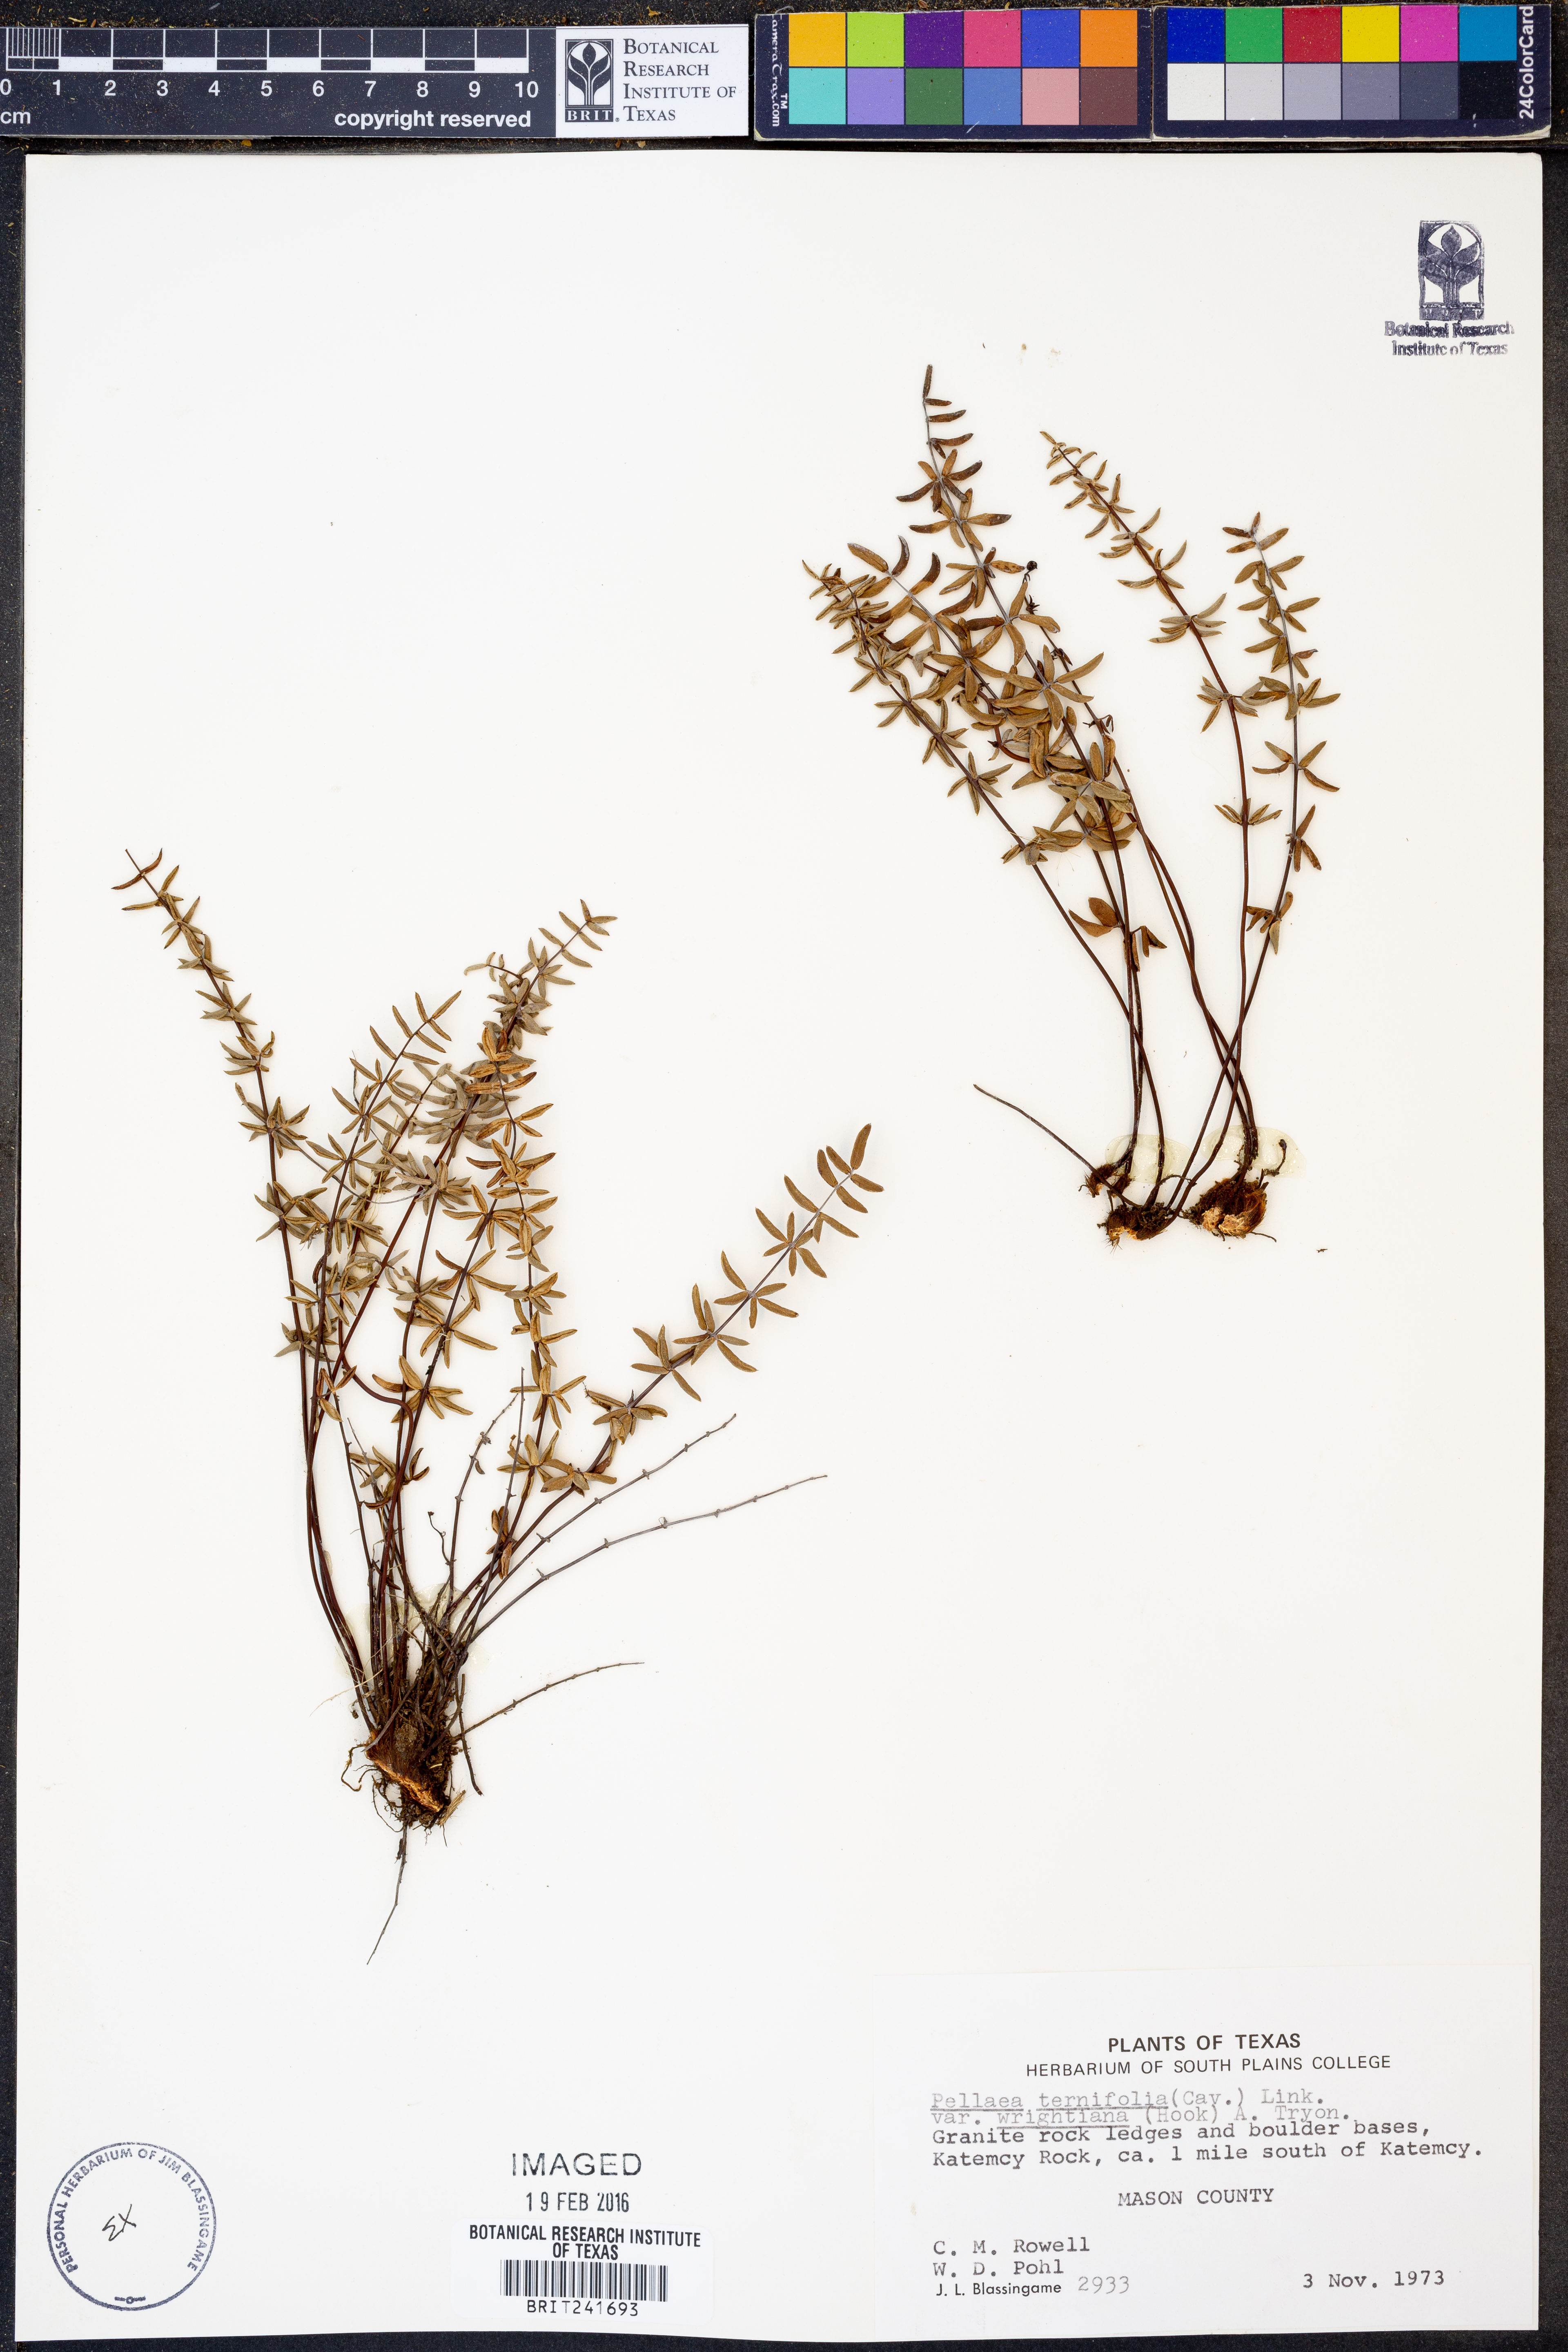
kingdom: Plantae
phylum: Tracheophyta
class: Polypodiopsida
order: Polypodiales
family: Pteridaceae
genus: Pellaea
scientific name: Pellaea wrightiana
